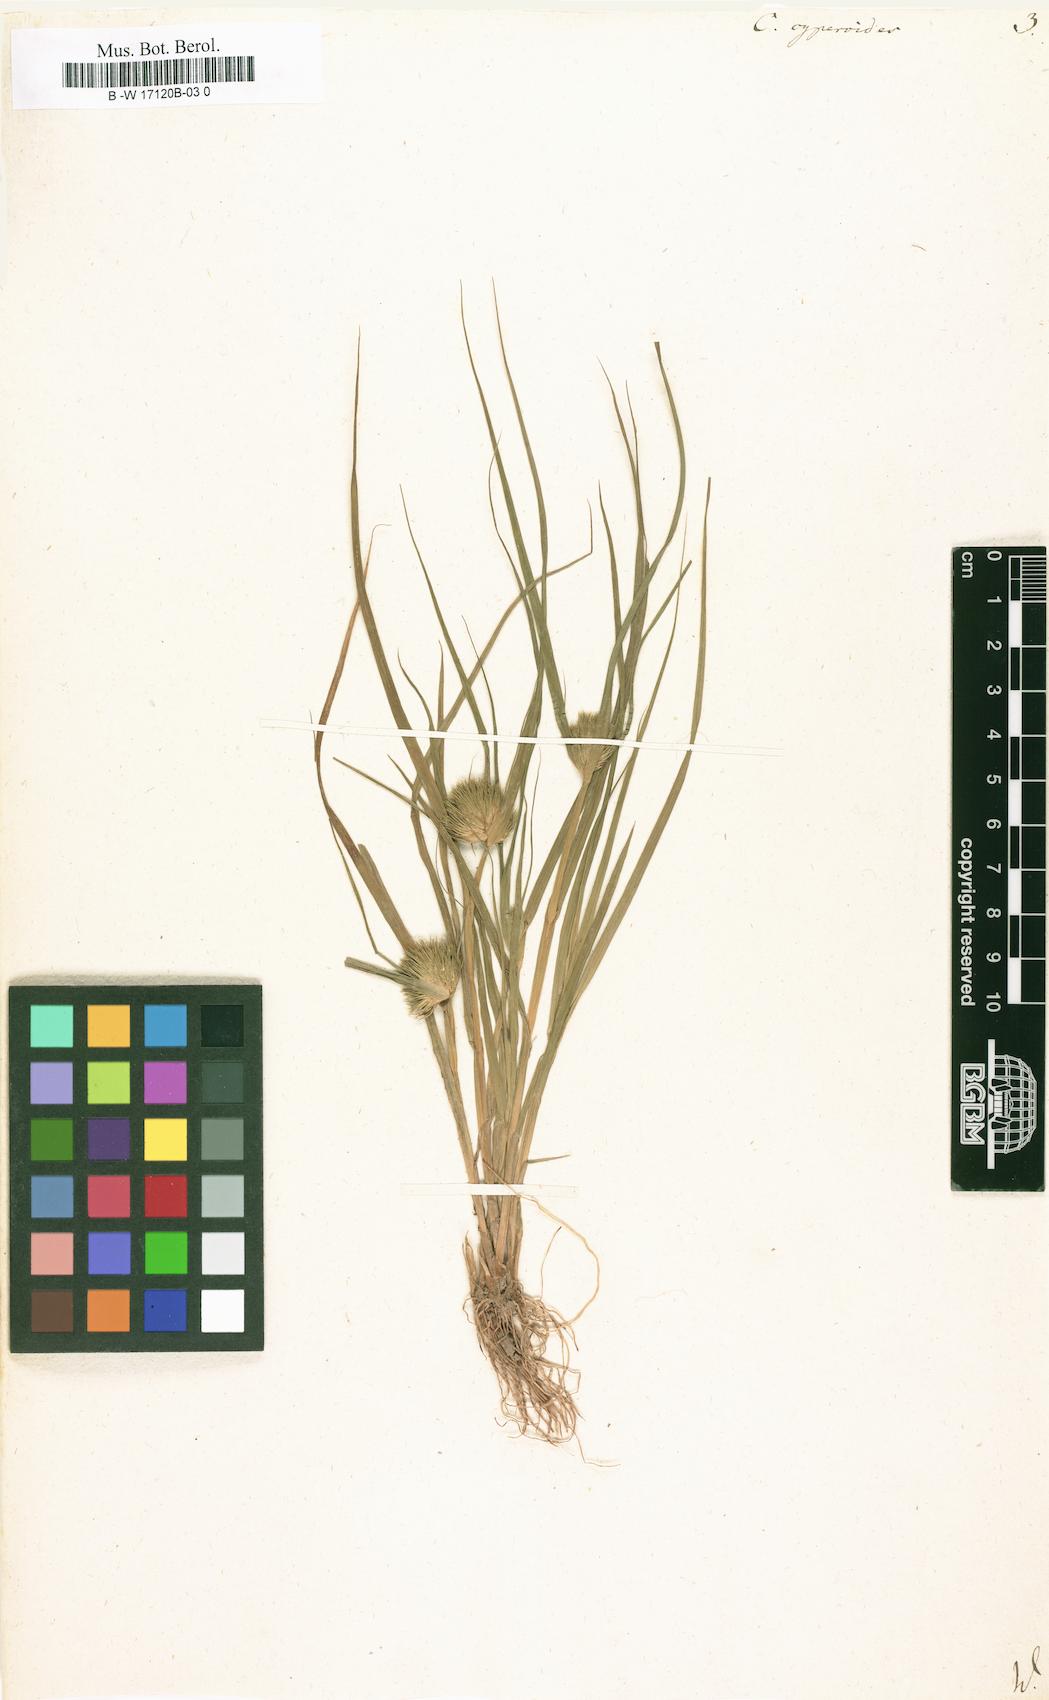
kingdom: Plantae
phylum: Tracheophyta
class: Liliopsida
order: Poales
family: Cyperaceae
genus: Carex
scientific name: Carex bohemica
